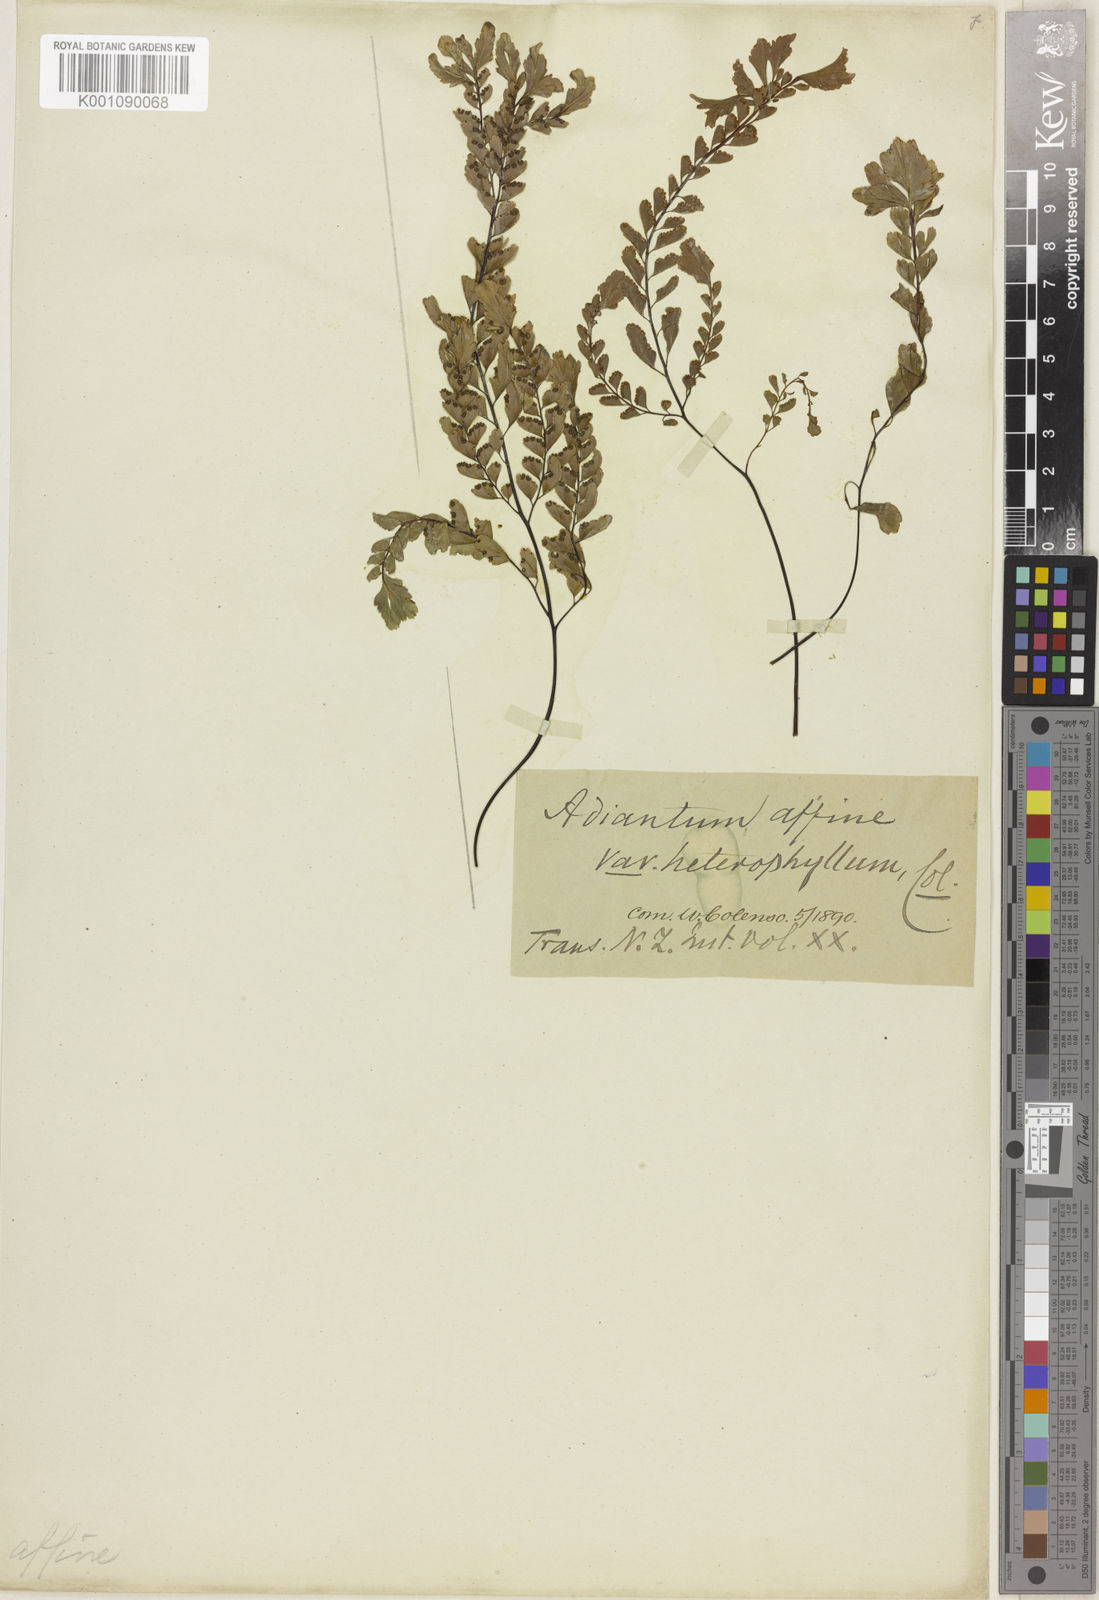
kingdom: Plantae
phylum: Tracheophyta
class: Polypodiopsida
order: Polypodiales
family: Pteridaceae
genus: Adiantum
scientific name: Adiantum cunninghamii
